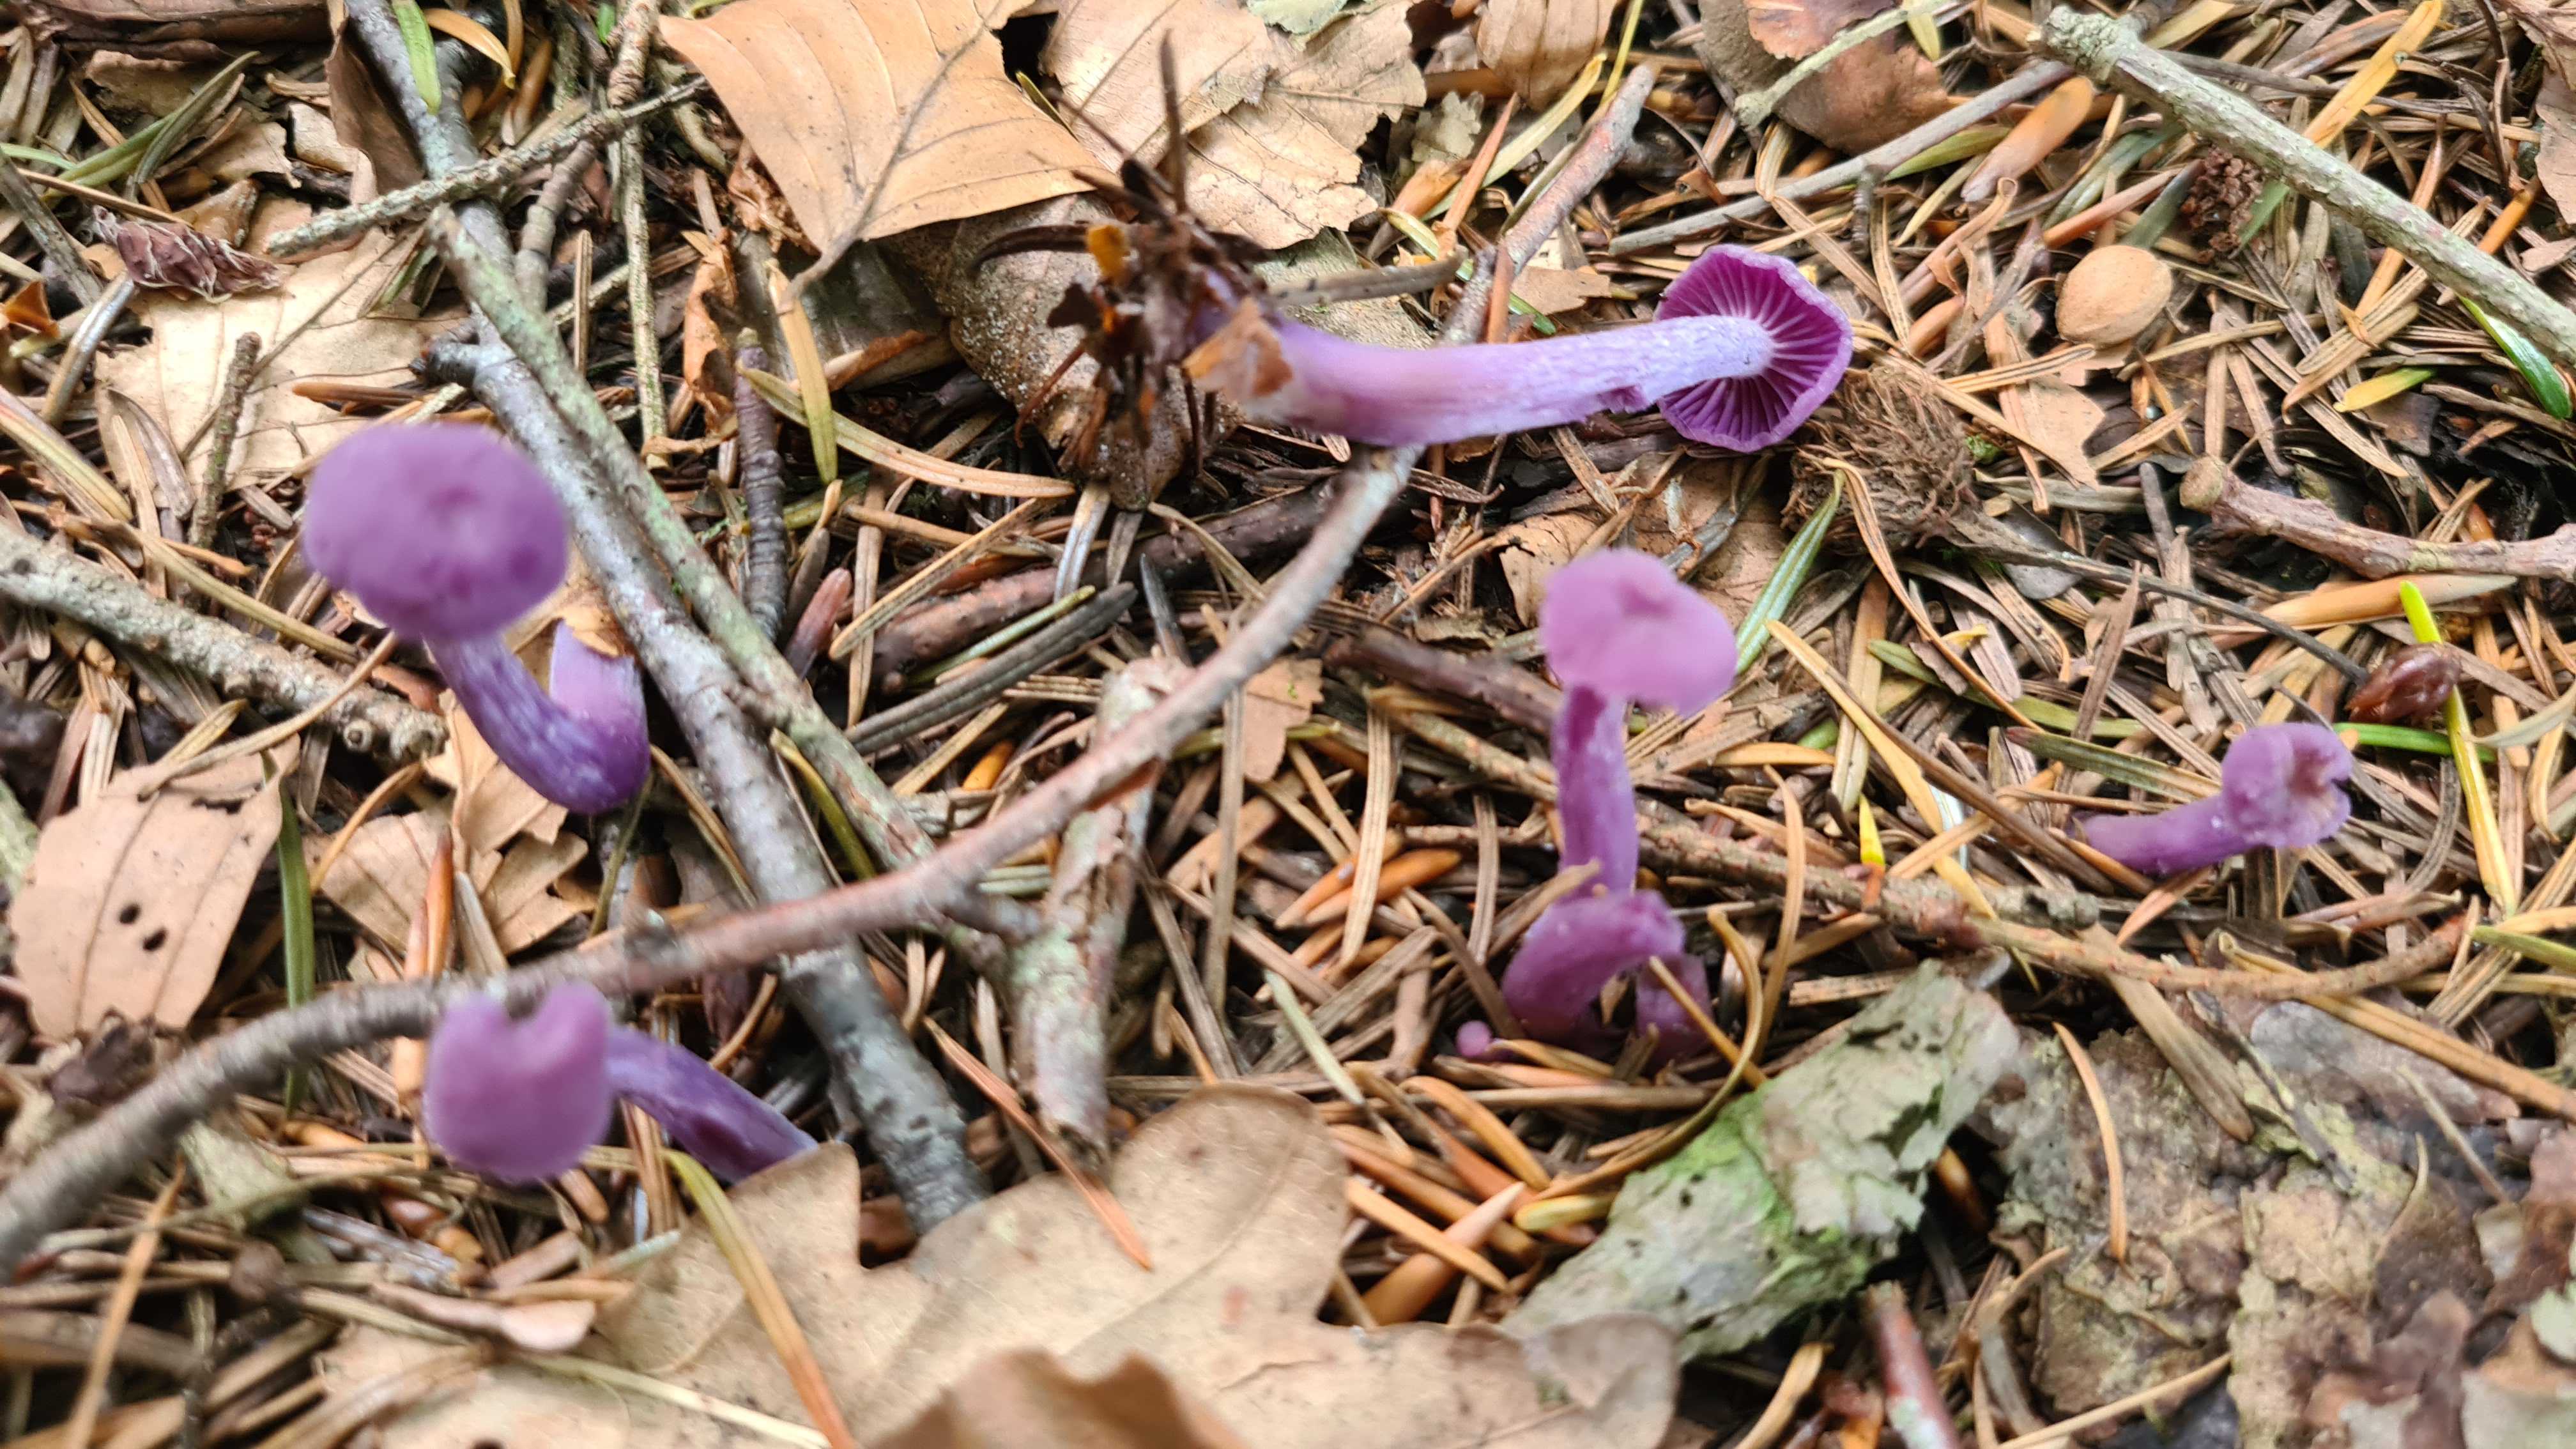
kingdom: Fungi
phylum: Basidiomycota
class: Agaricomycetes
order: Agaricales
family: Hydnangiaceae
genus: Laccaria
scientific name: Laccaria amethystina
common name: violet ametysthat
